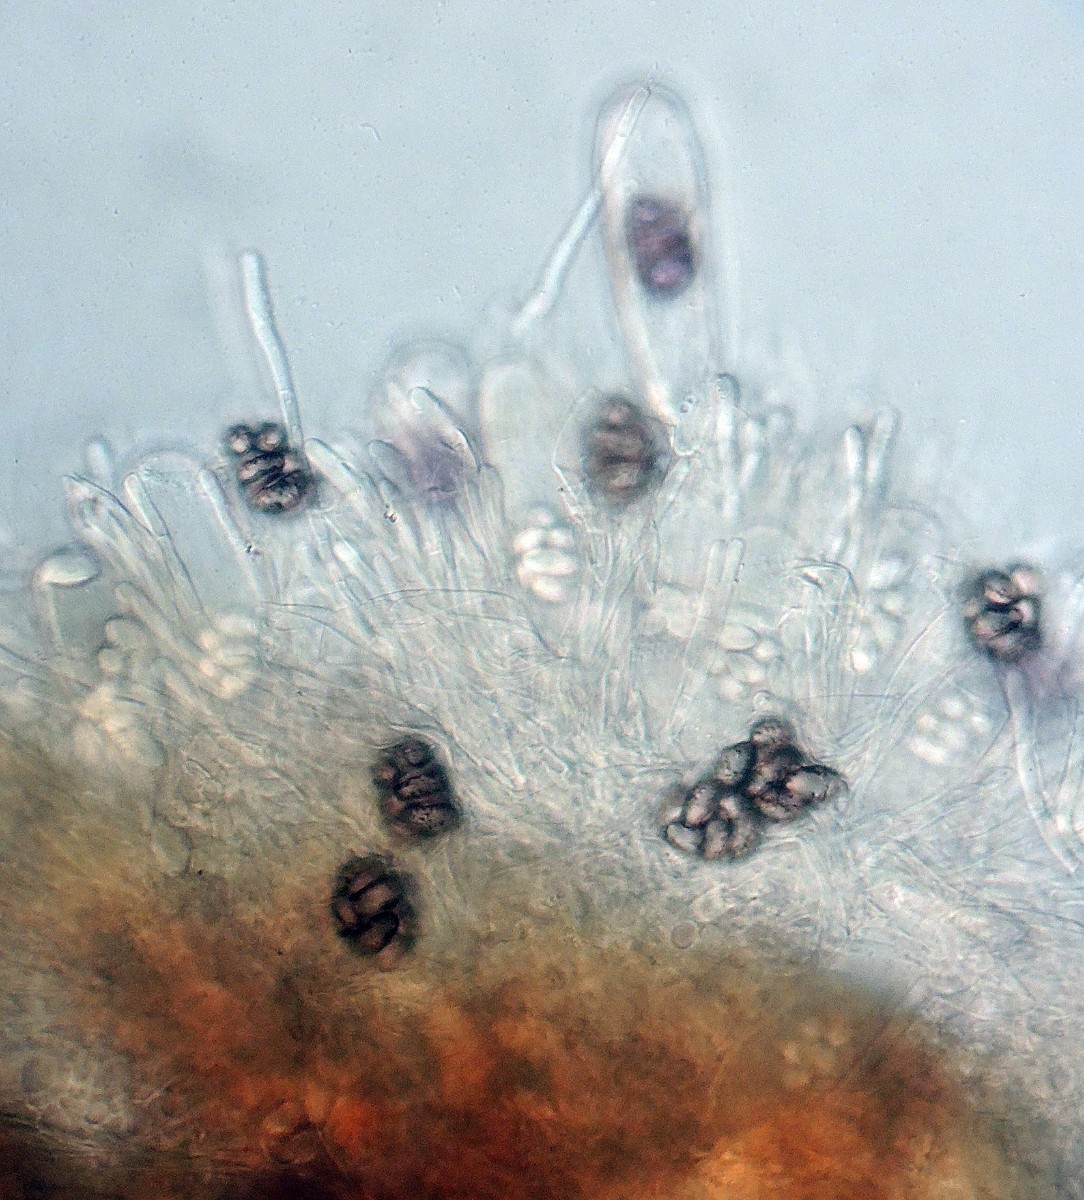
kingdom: Fungi
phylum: Ascomycota
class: Pezizomycetes
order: Pezizales
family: Ascobolaceae
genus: Saccobolus
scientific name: Saccobolus dilutellus
